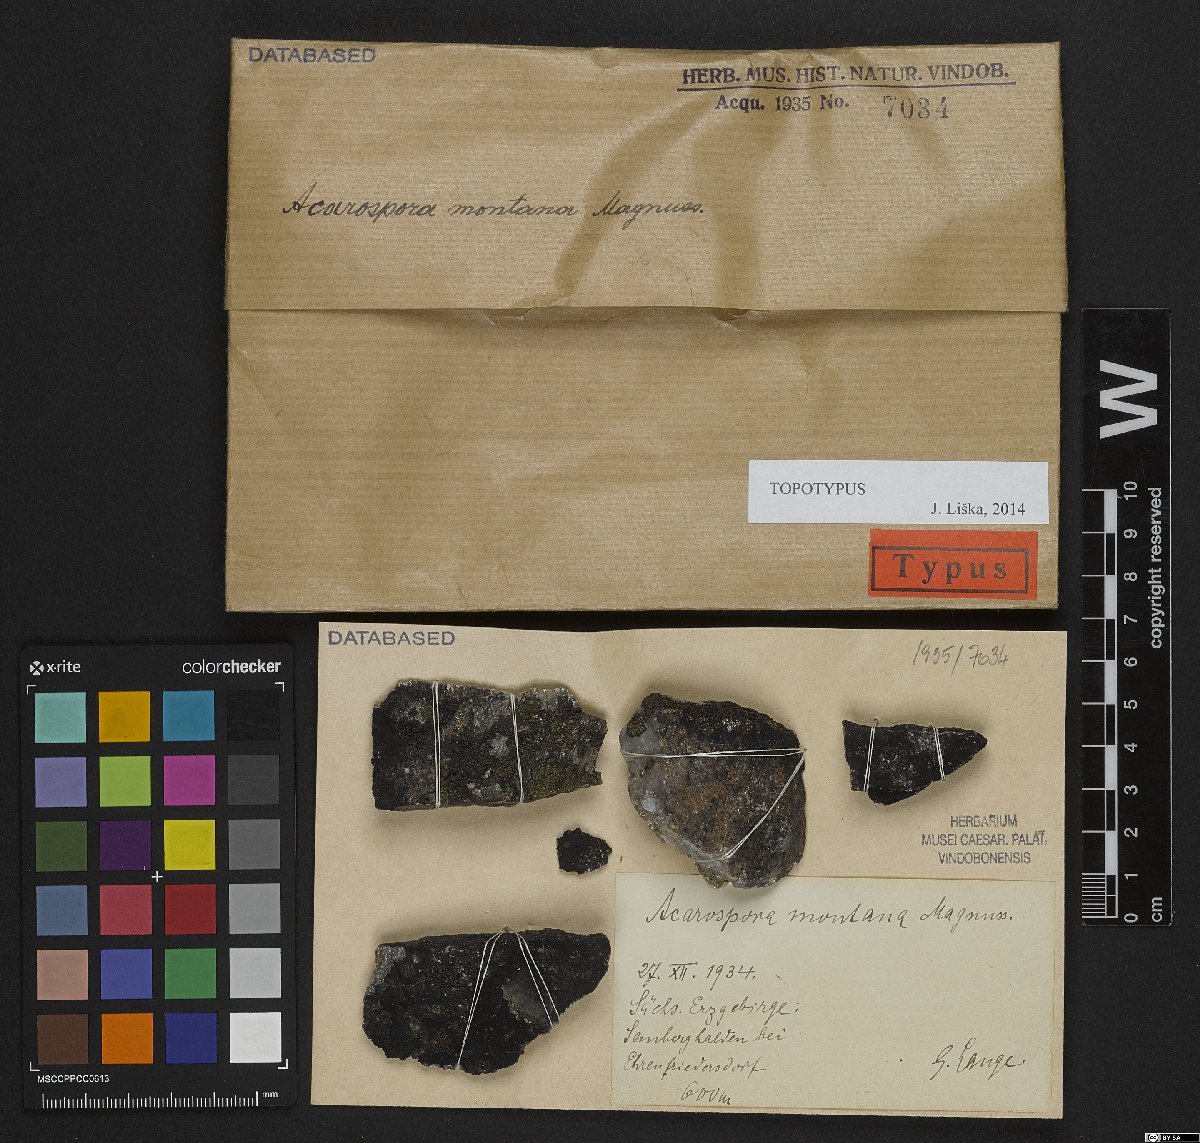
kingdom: Fungi
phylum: Ascomycota
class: Lecanoromycetes
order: Acarosporales
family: Acarosporaceae
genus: Polysporinopsis
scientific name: Polysporinopsis rugulosa
